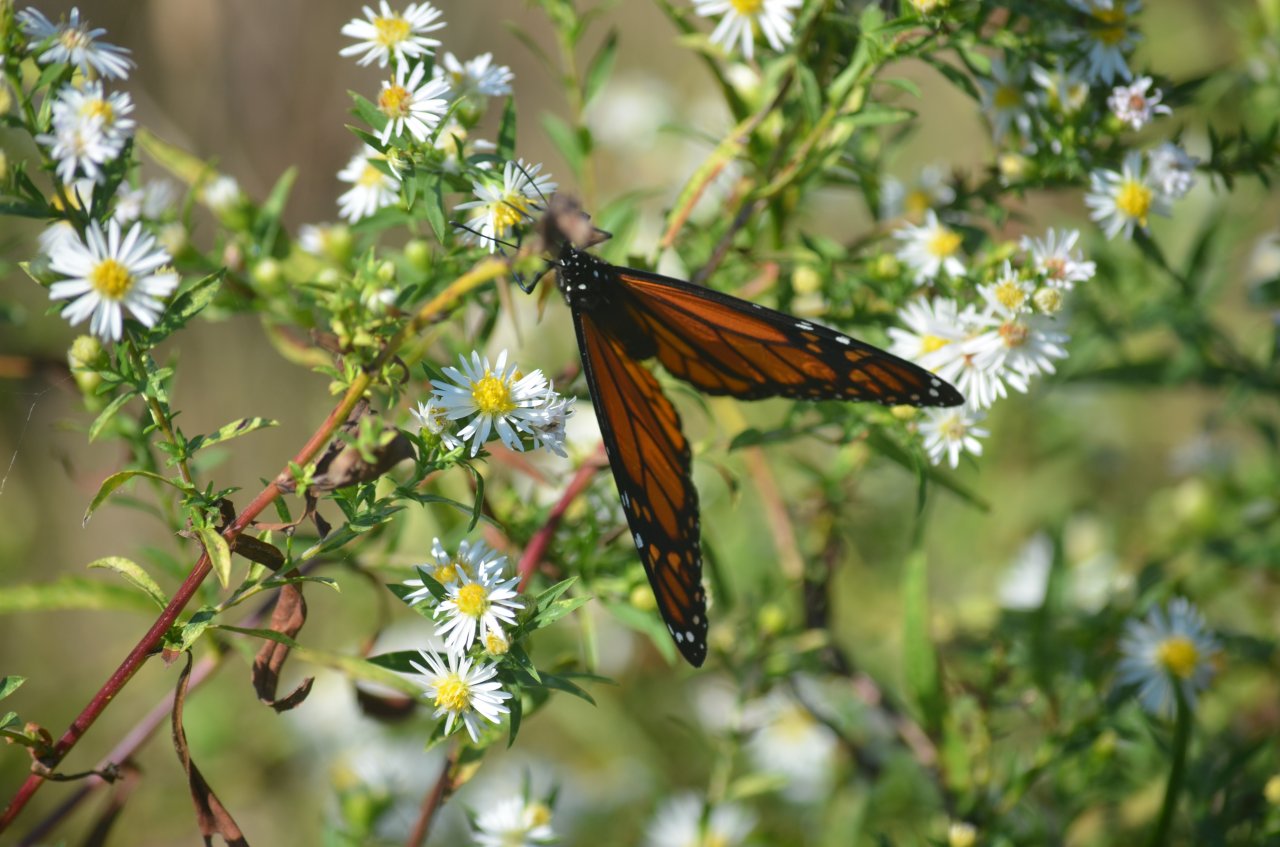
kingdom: Animalia
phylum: Arthropoda
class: Insecta
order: Lepidoptera
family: Nymphalidae
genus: Danaus
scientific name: Danaus plexippus
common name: Monarch
